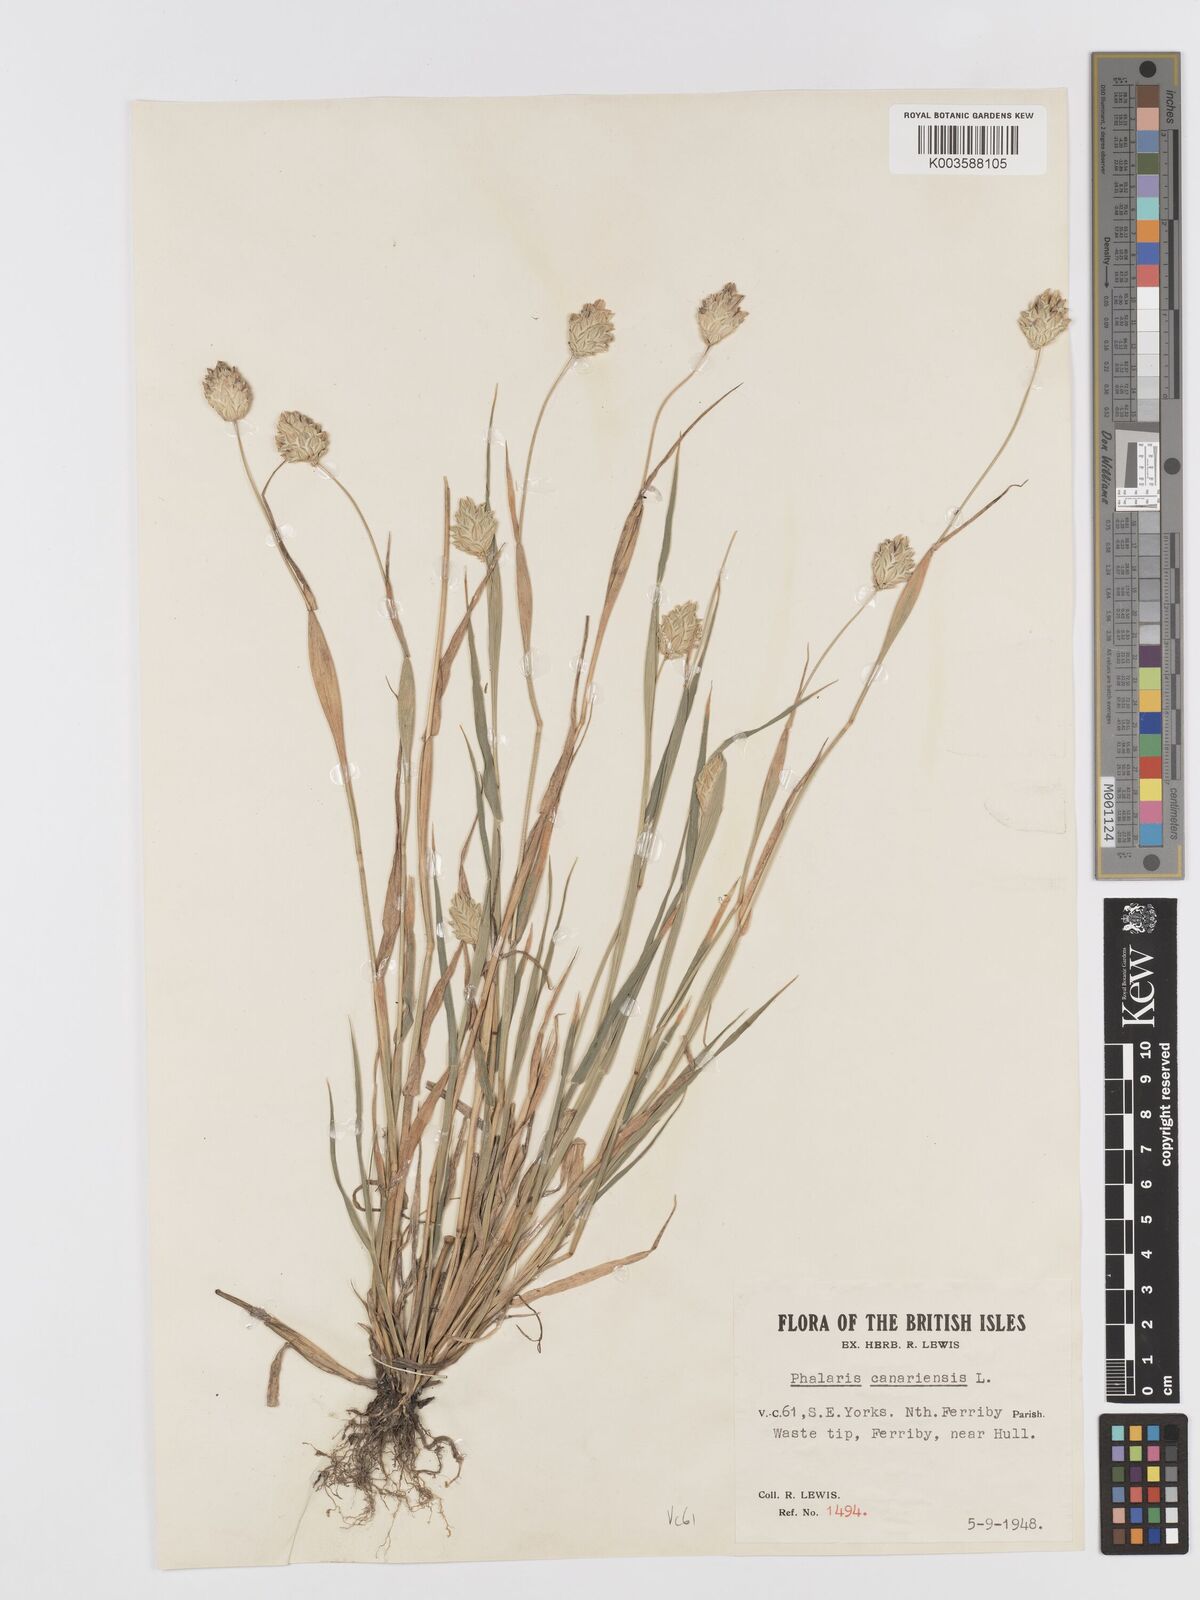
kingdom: Plantae
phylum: Tracheophyta
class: Liliopsida
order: Poales
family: Poaceae
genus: Phalaris
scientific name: Phalaris canariensis
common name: Annual canarygrass
